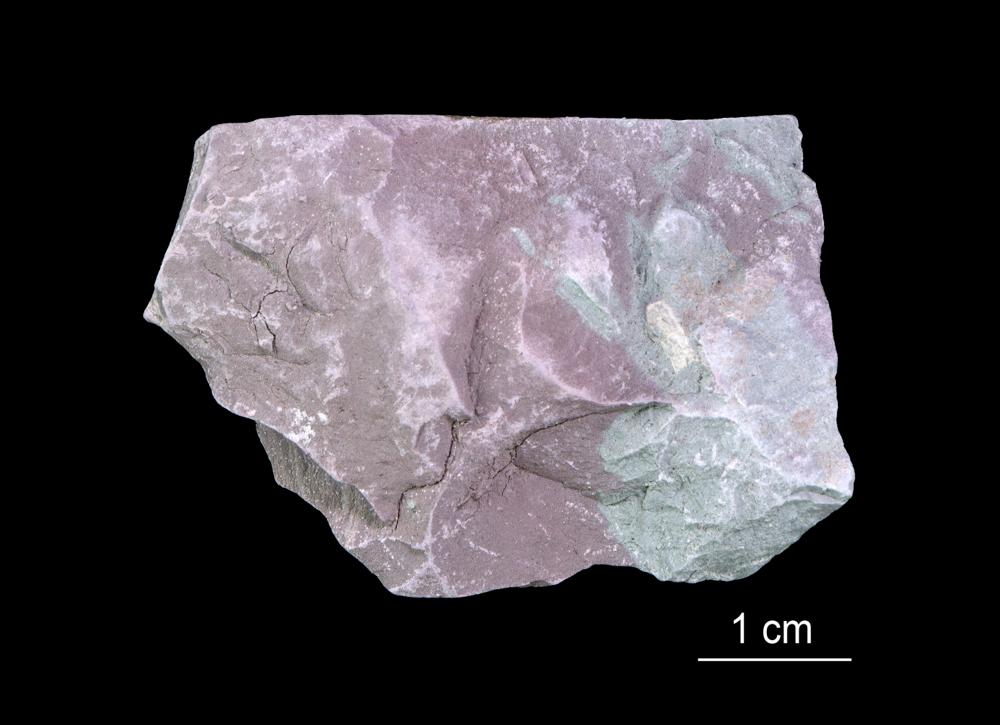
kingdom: Chromista
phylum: Foraminifera
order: Astrorhizida
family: Hyperamminidae
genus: Platysolenites
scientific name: Platysolenites
